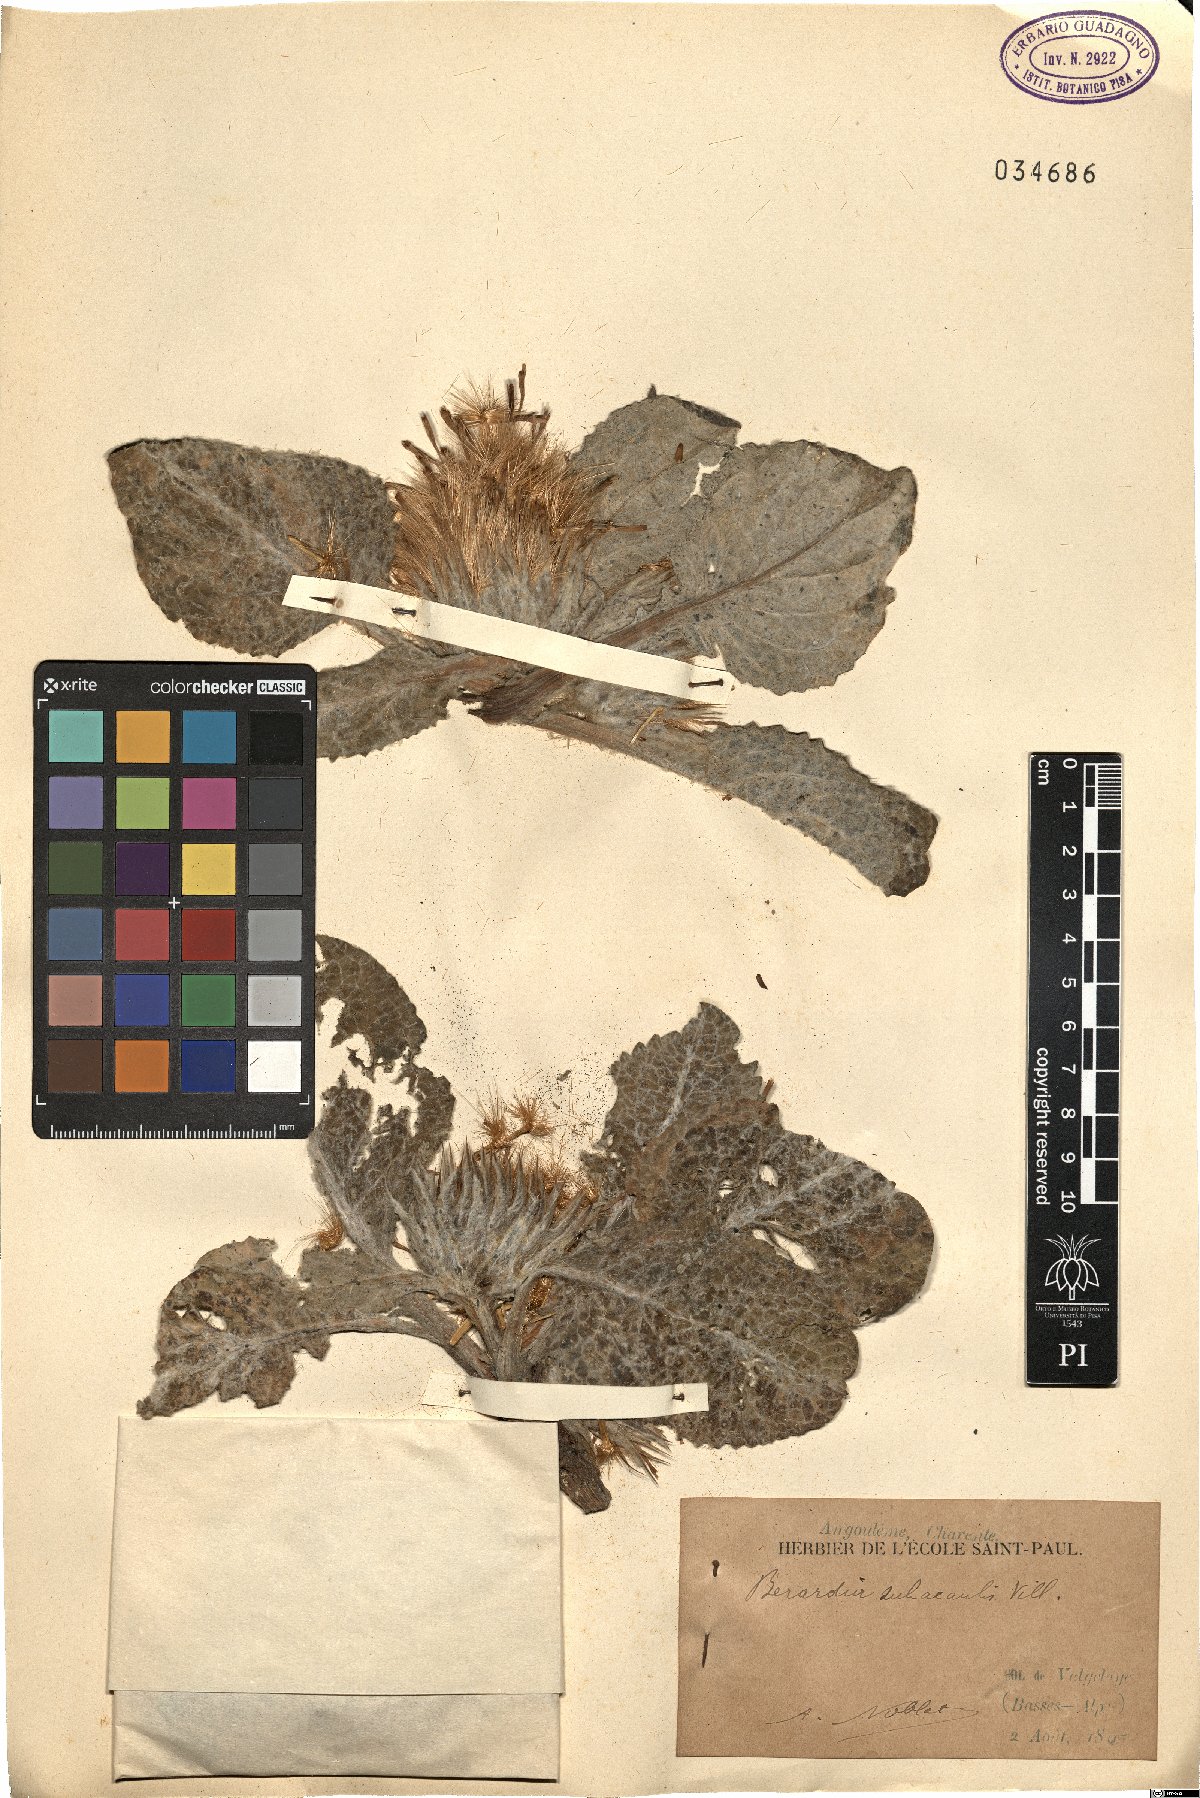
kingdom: Plantae
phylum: Tracheophyta
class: Magnoliopsida
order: Asterales
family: Asteraceae
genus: Berardia
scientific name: Berardia lanuginosa
